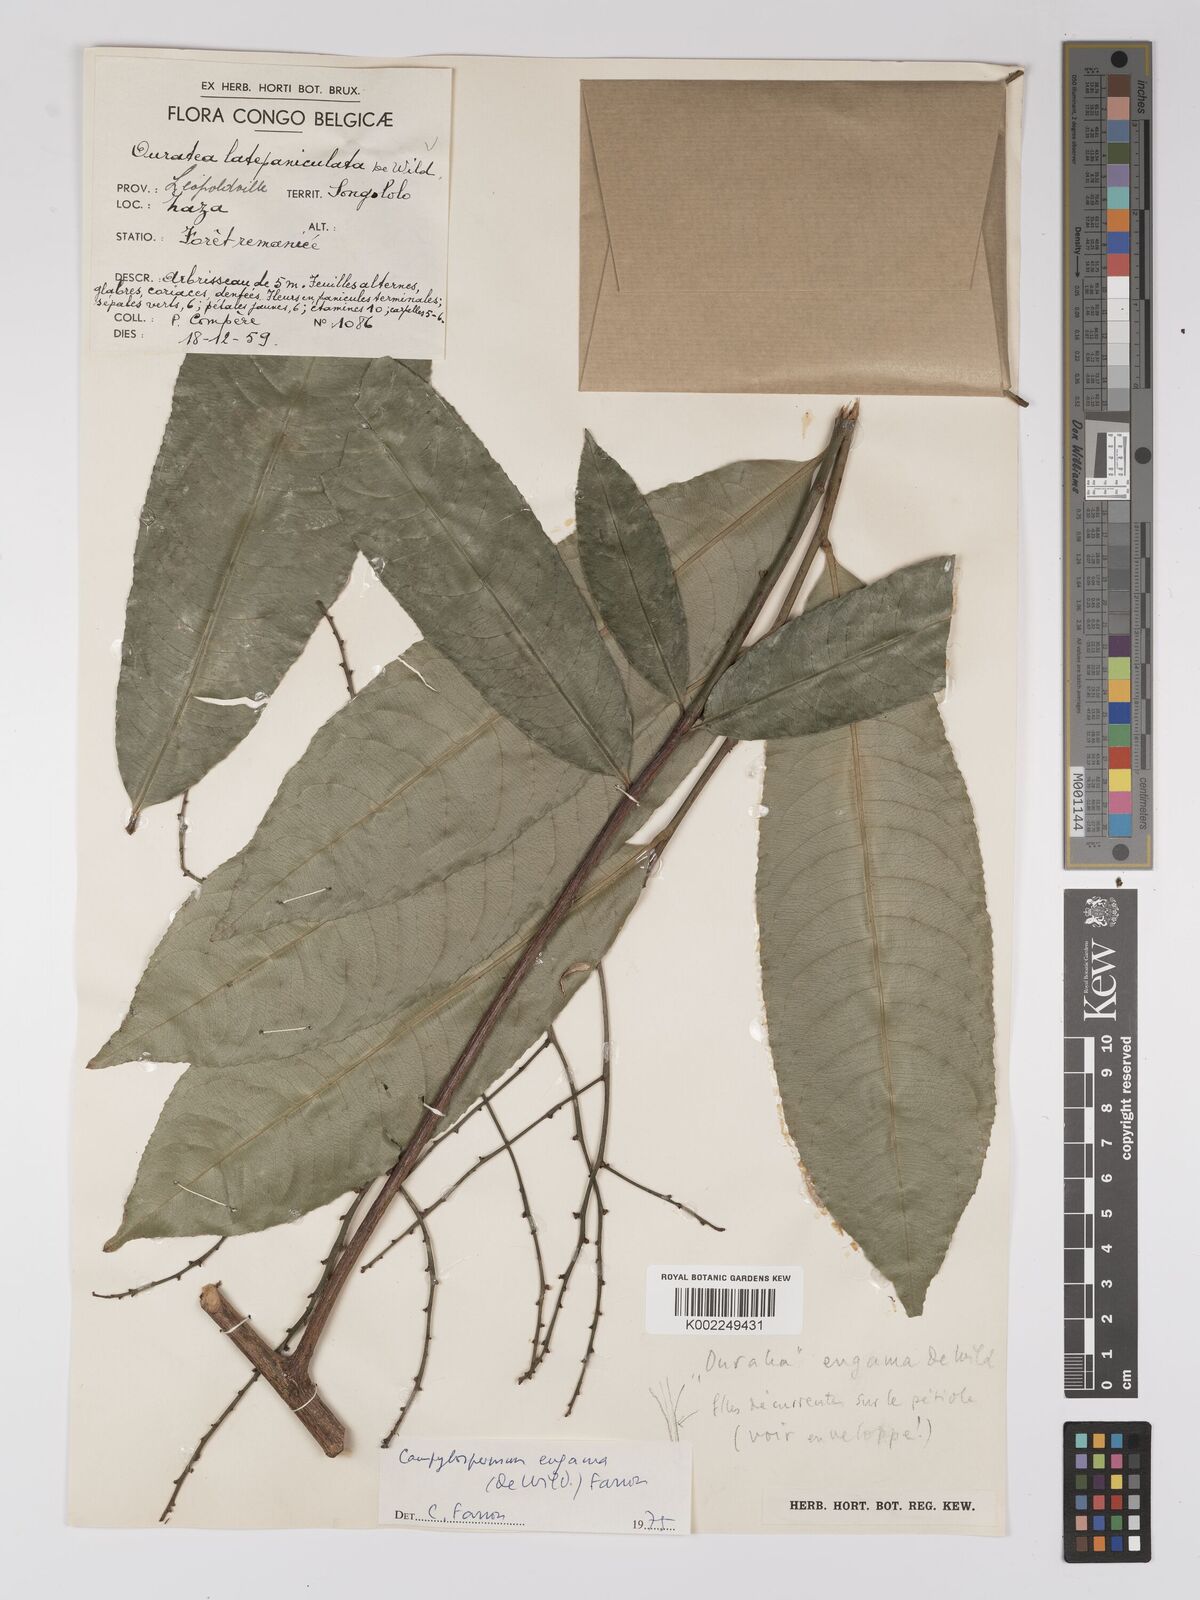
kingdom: Plantae
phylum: Tracheophyta
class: Magnoliopsida
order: Malpighiales
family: Ochnaceae
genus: Campylospermum
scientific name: Campylospermum engama
